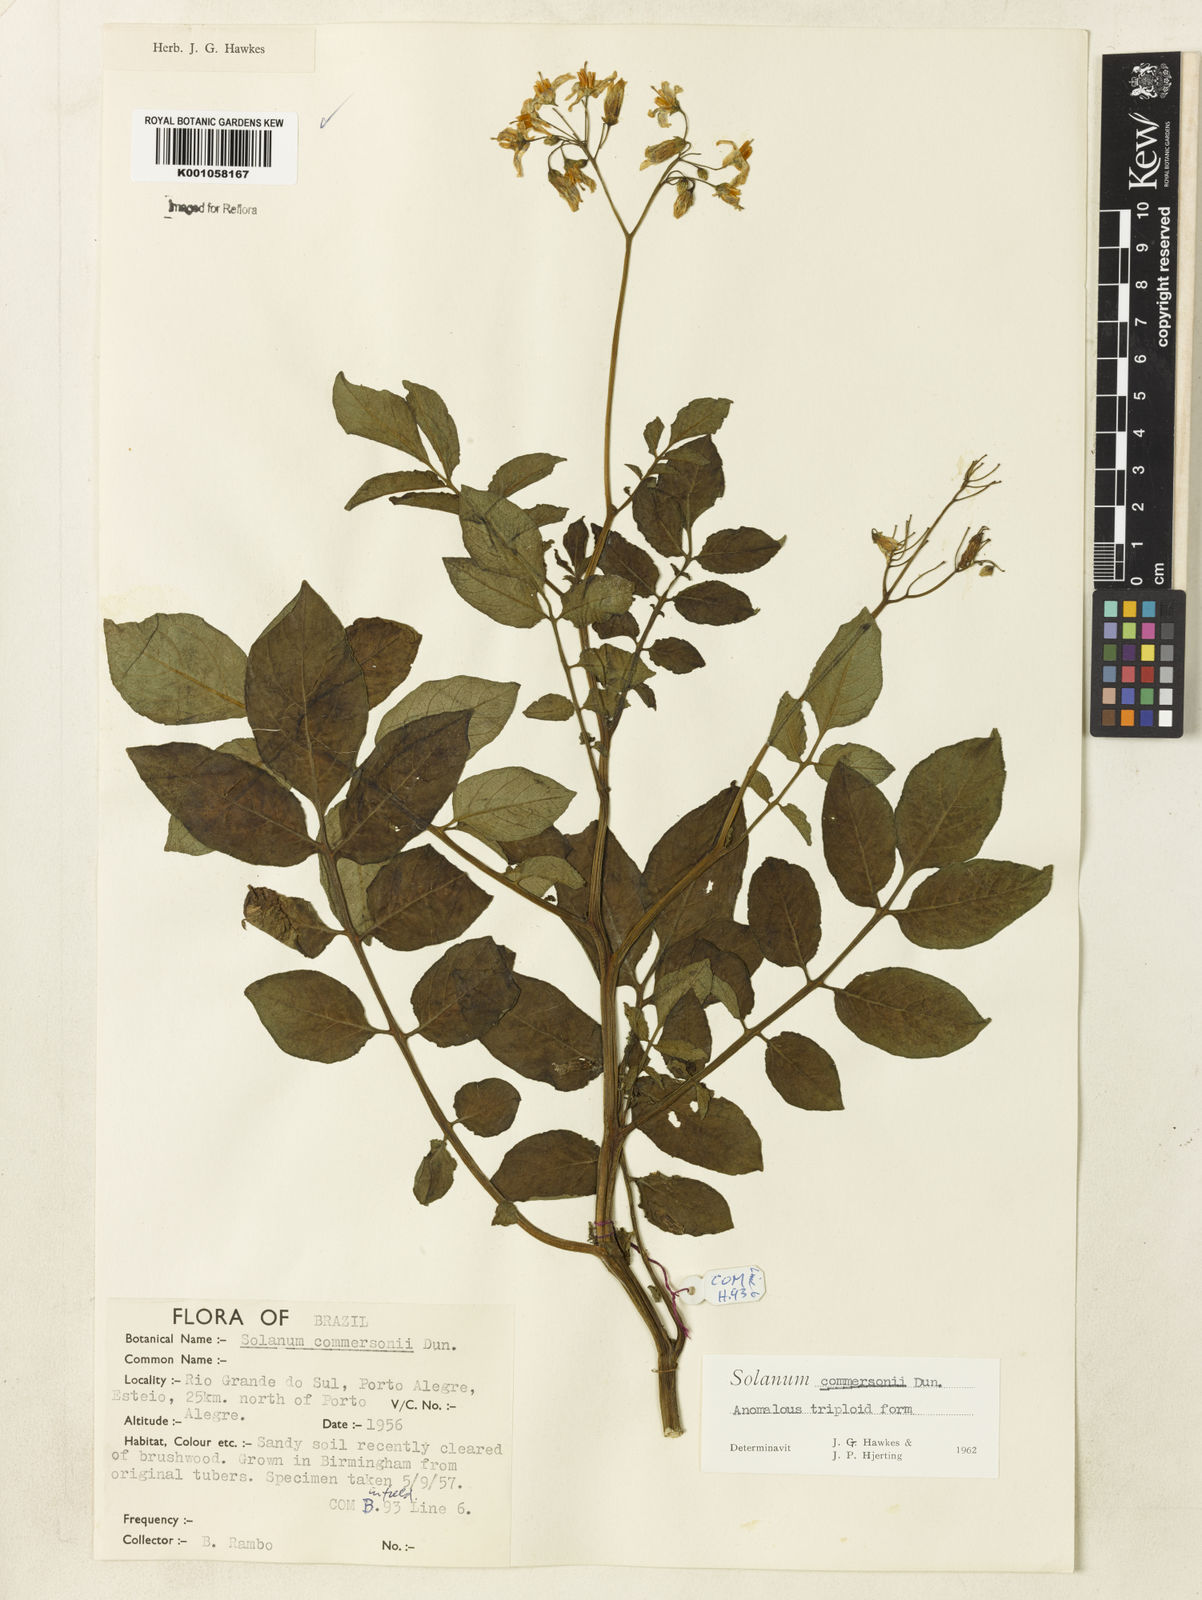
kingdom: Plantae
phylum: Tracheophyta
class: Magnoliopsida
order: Solanales
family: Solanaceae
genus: Solanum
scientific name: Solanum
